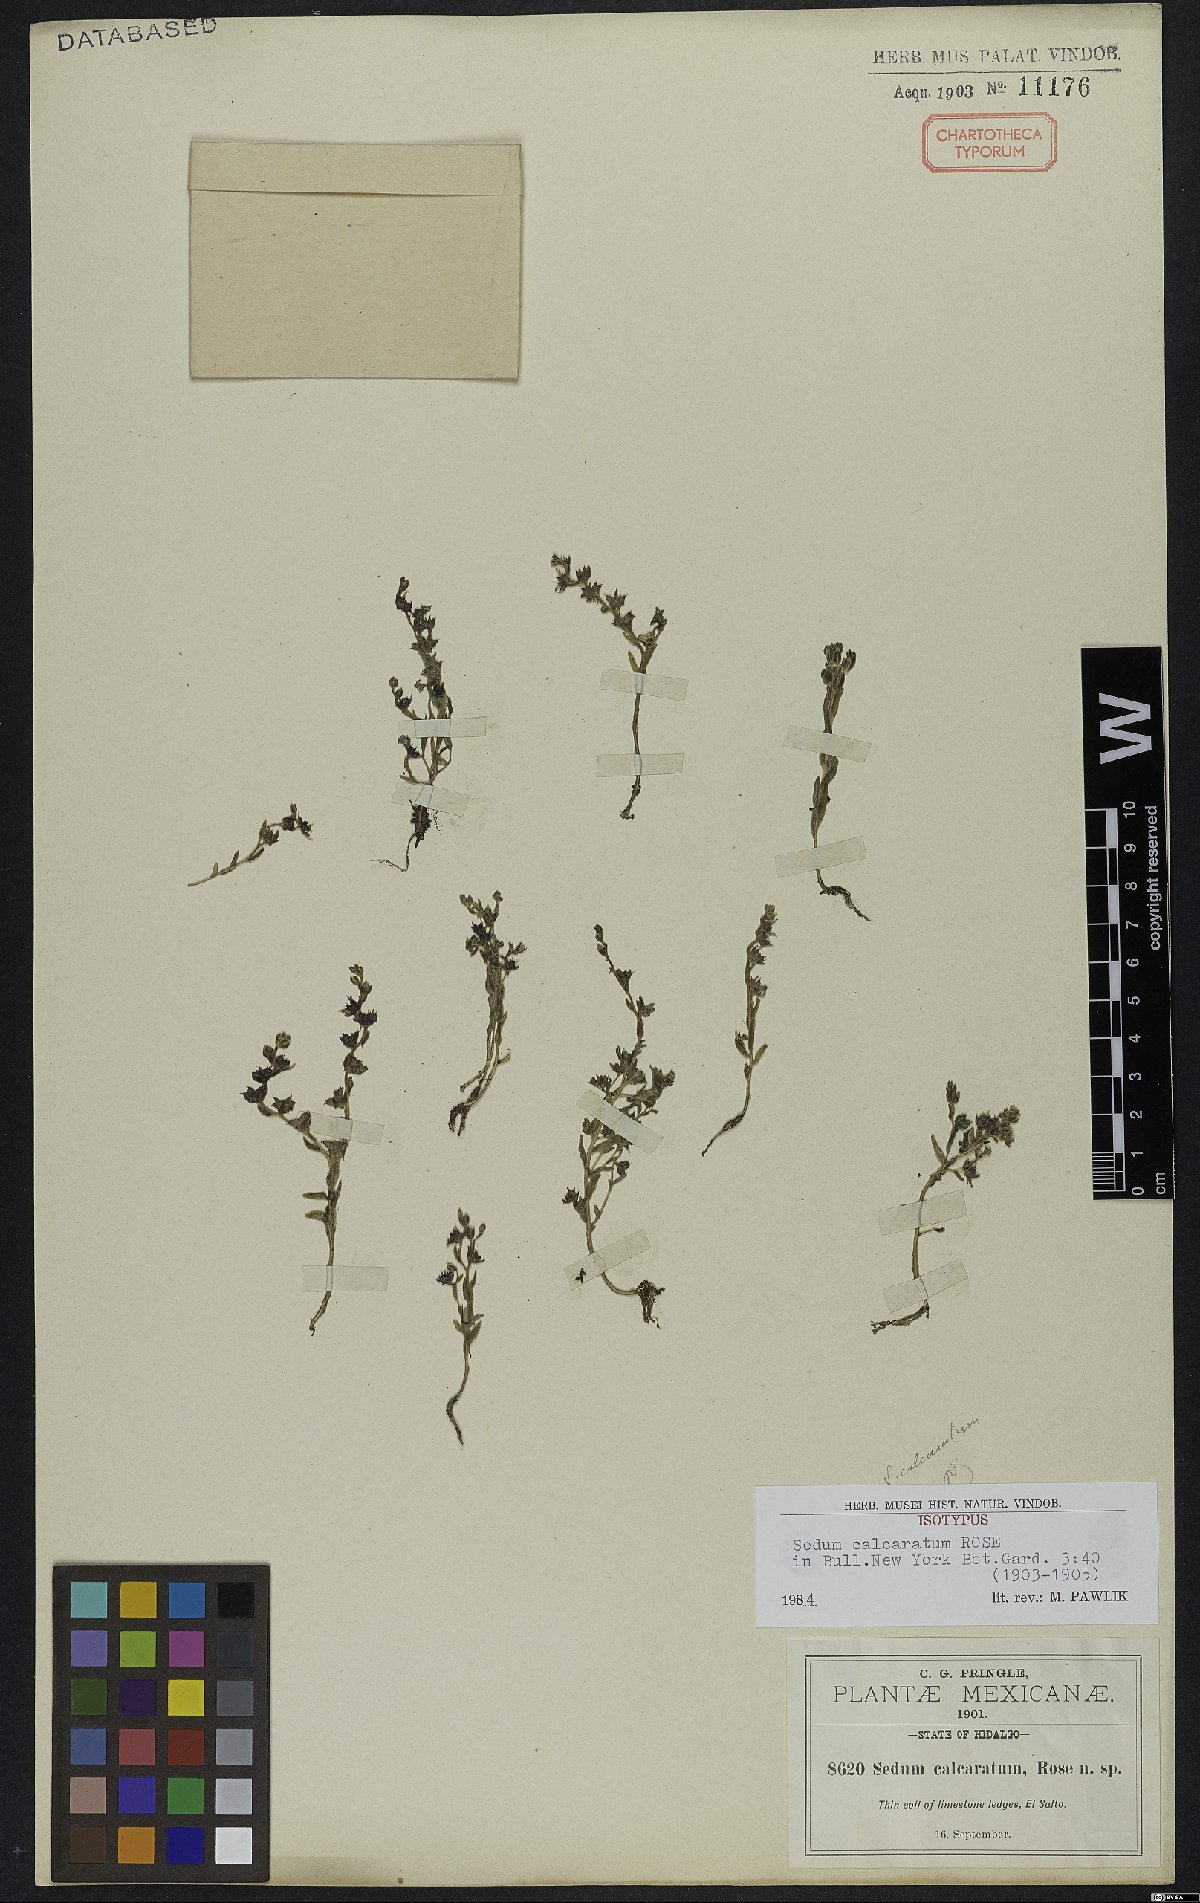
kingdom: Plantae
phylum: Tracheophyta
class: Magnoliopsida
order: Saxifragales
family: Crassulaceae
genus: Sedum
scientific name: Sedum calcaratum
